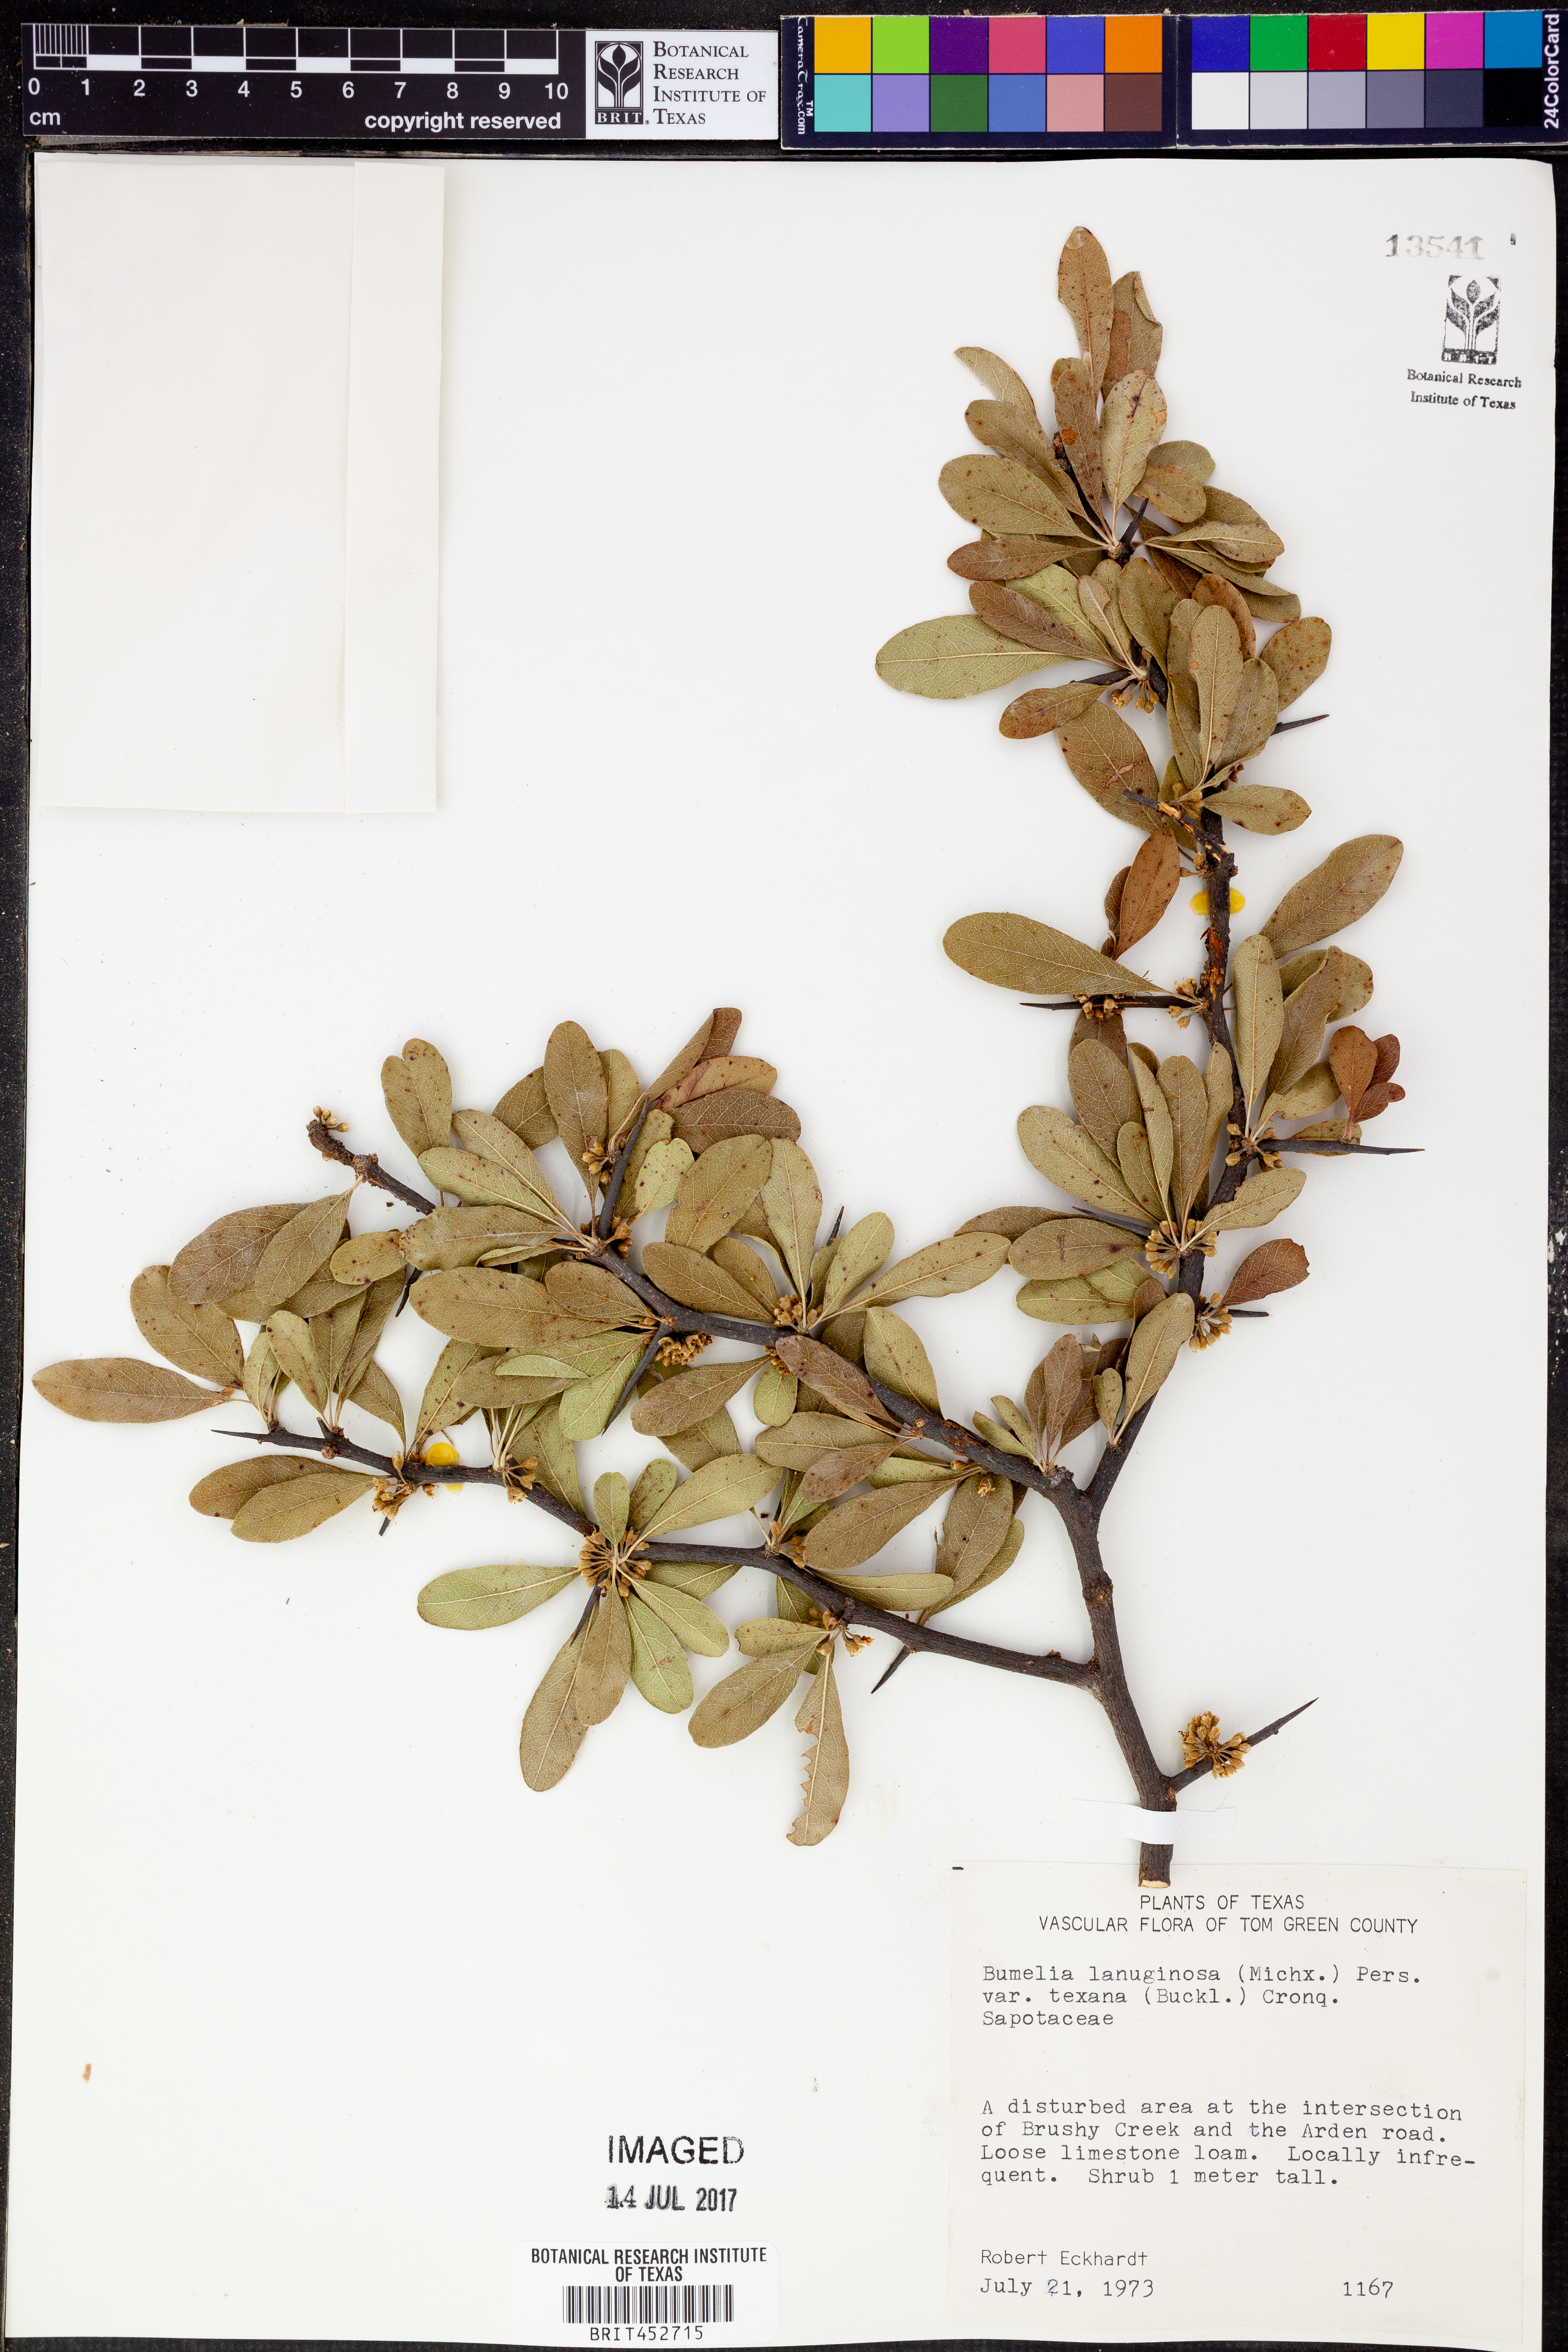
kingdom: Plantae
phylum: Tracheophyta
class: Magnoliopsida
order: Ericales
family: Sapotaceae
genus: Sideroxylon
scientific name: Sideroxylon lanuginosum
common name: Chittamwood
